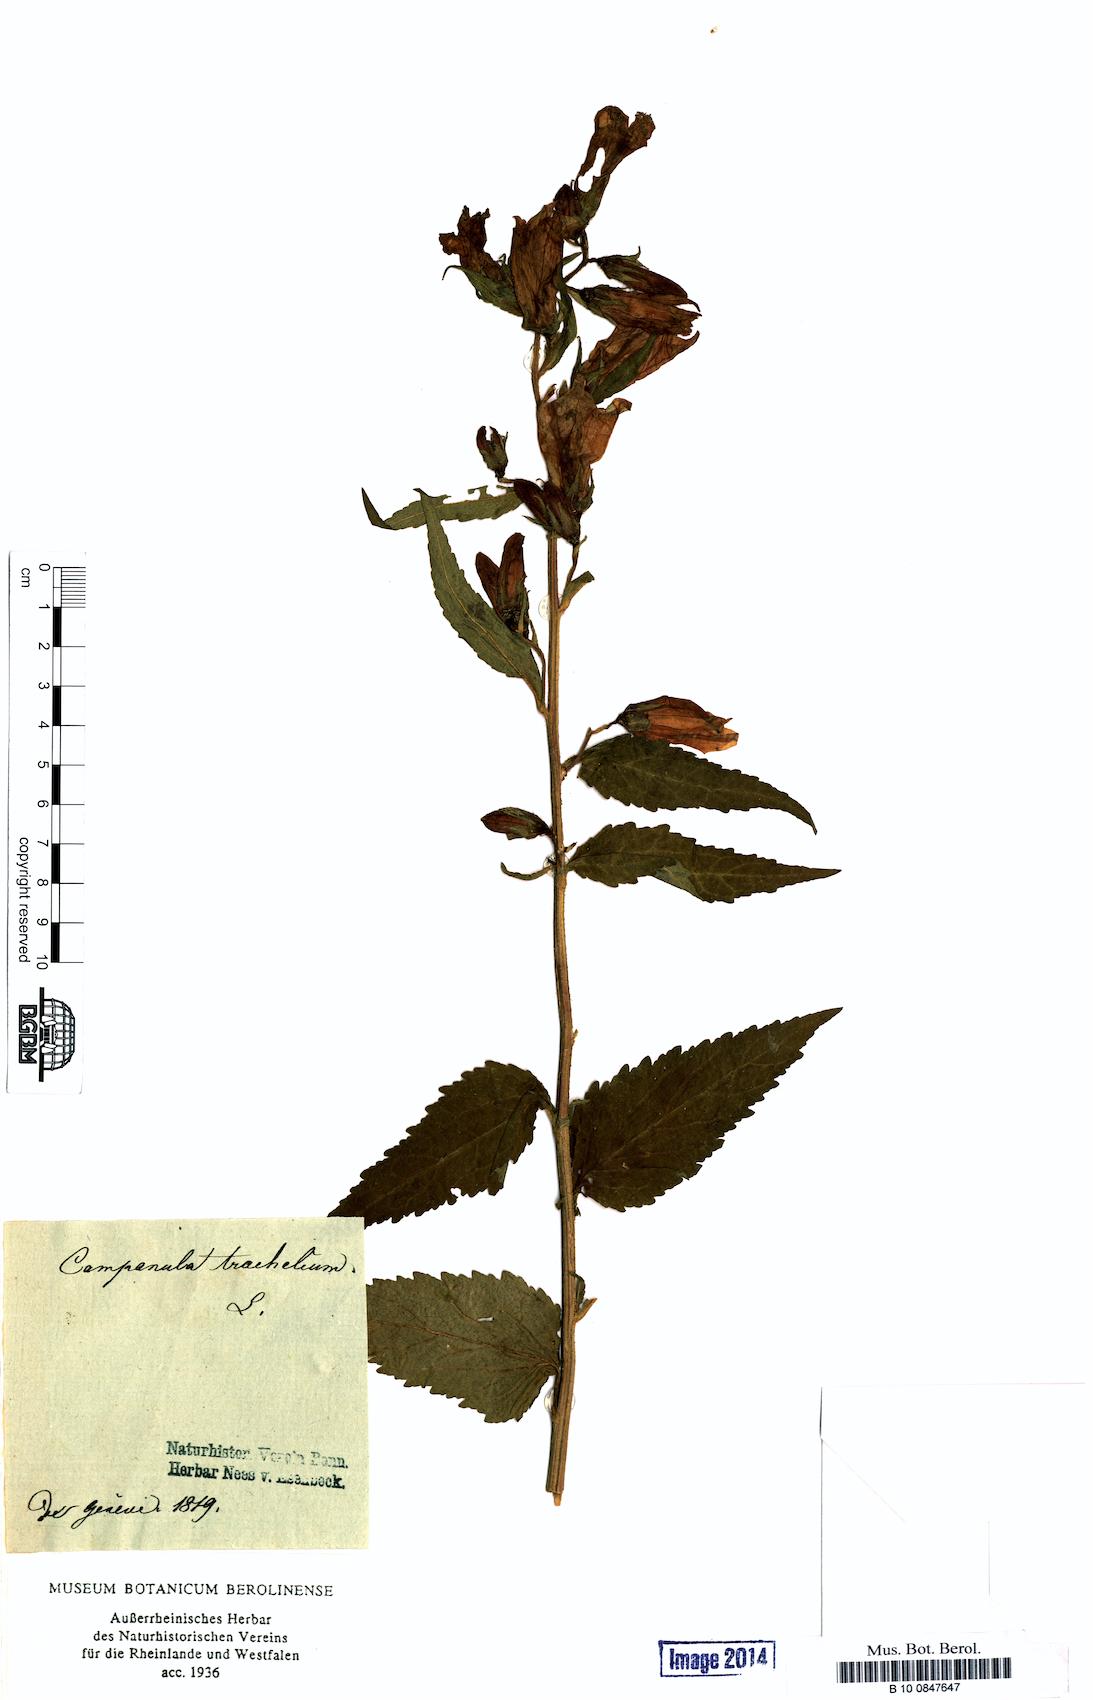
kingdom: Plantae
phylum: Tracheophyta
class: Magnoliopsida
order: Asterales
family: Campanulaceae
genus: Campanula
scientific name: Campanula trachelium
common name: Nettle-leaved bellflower
